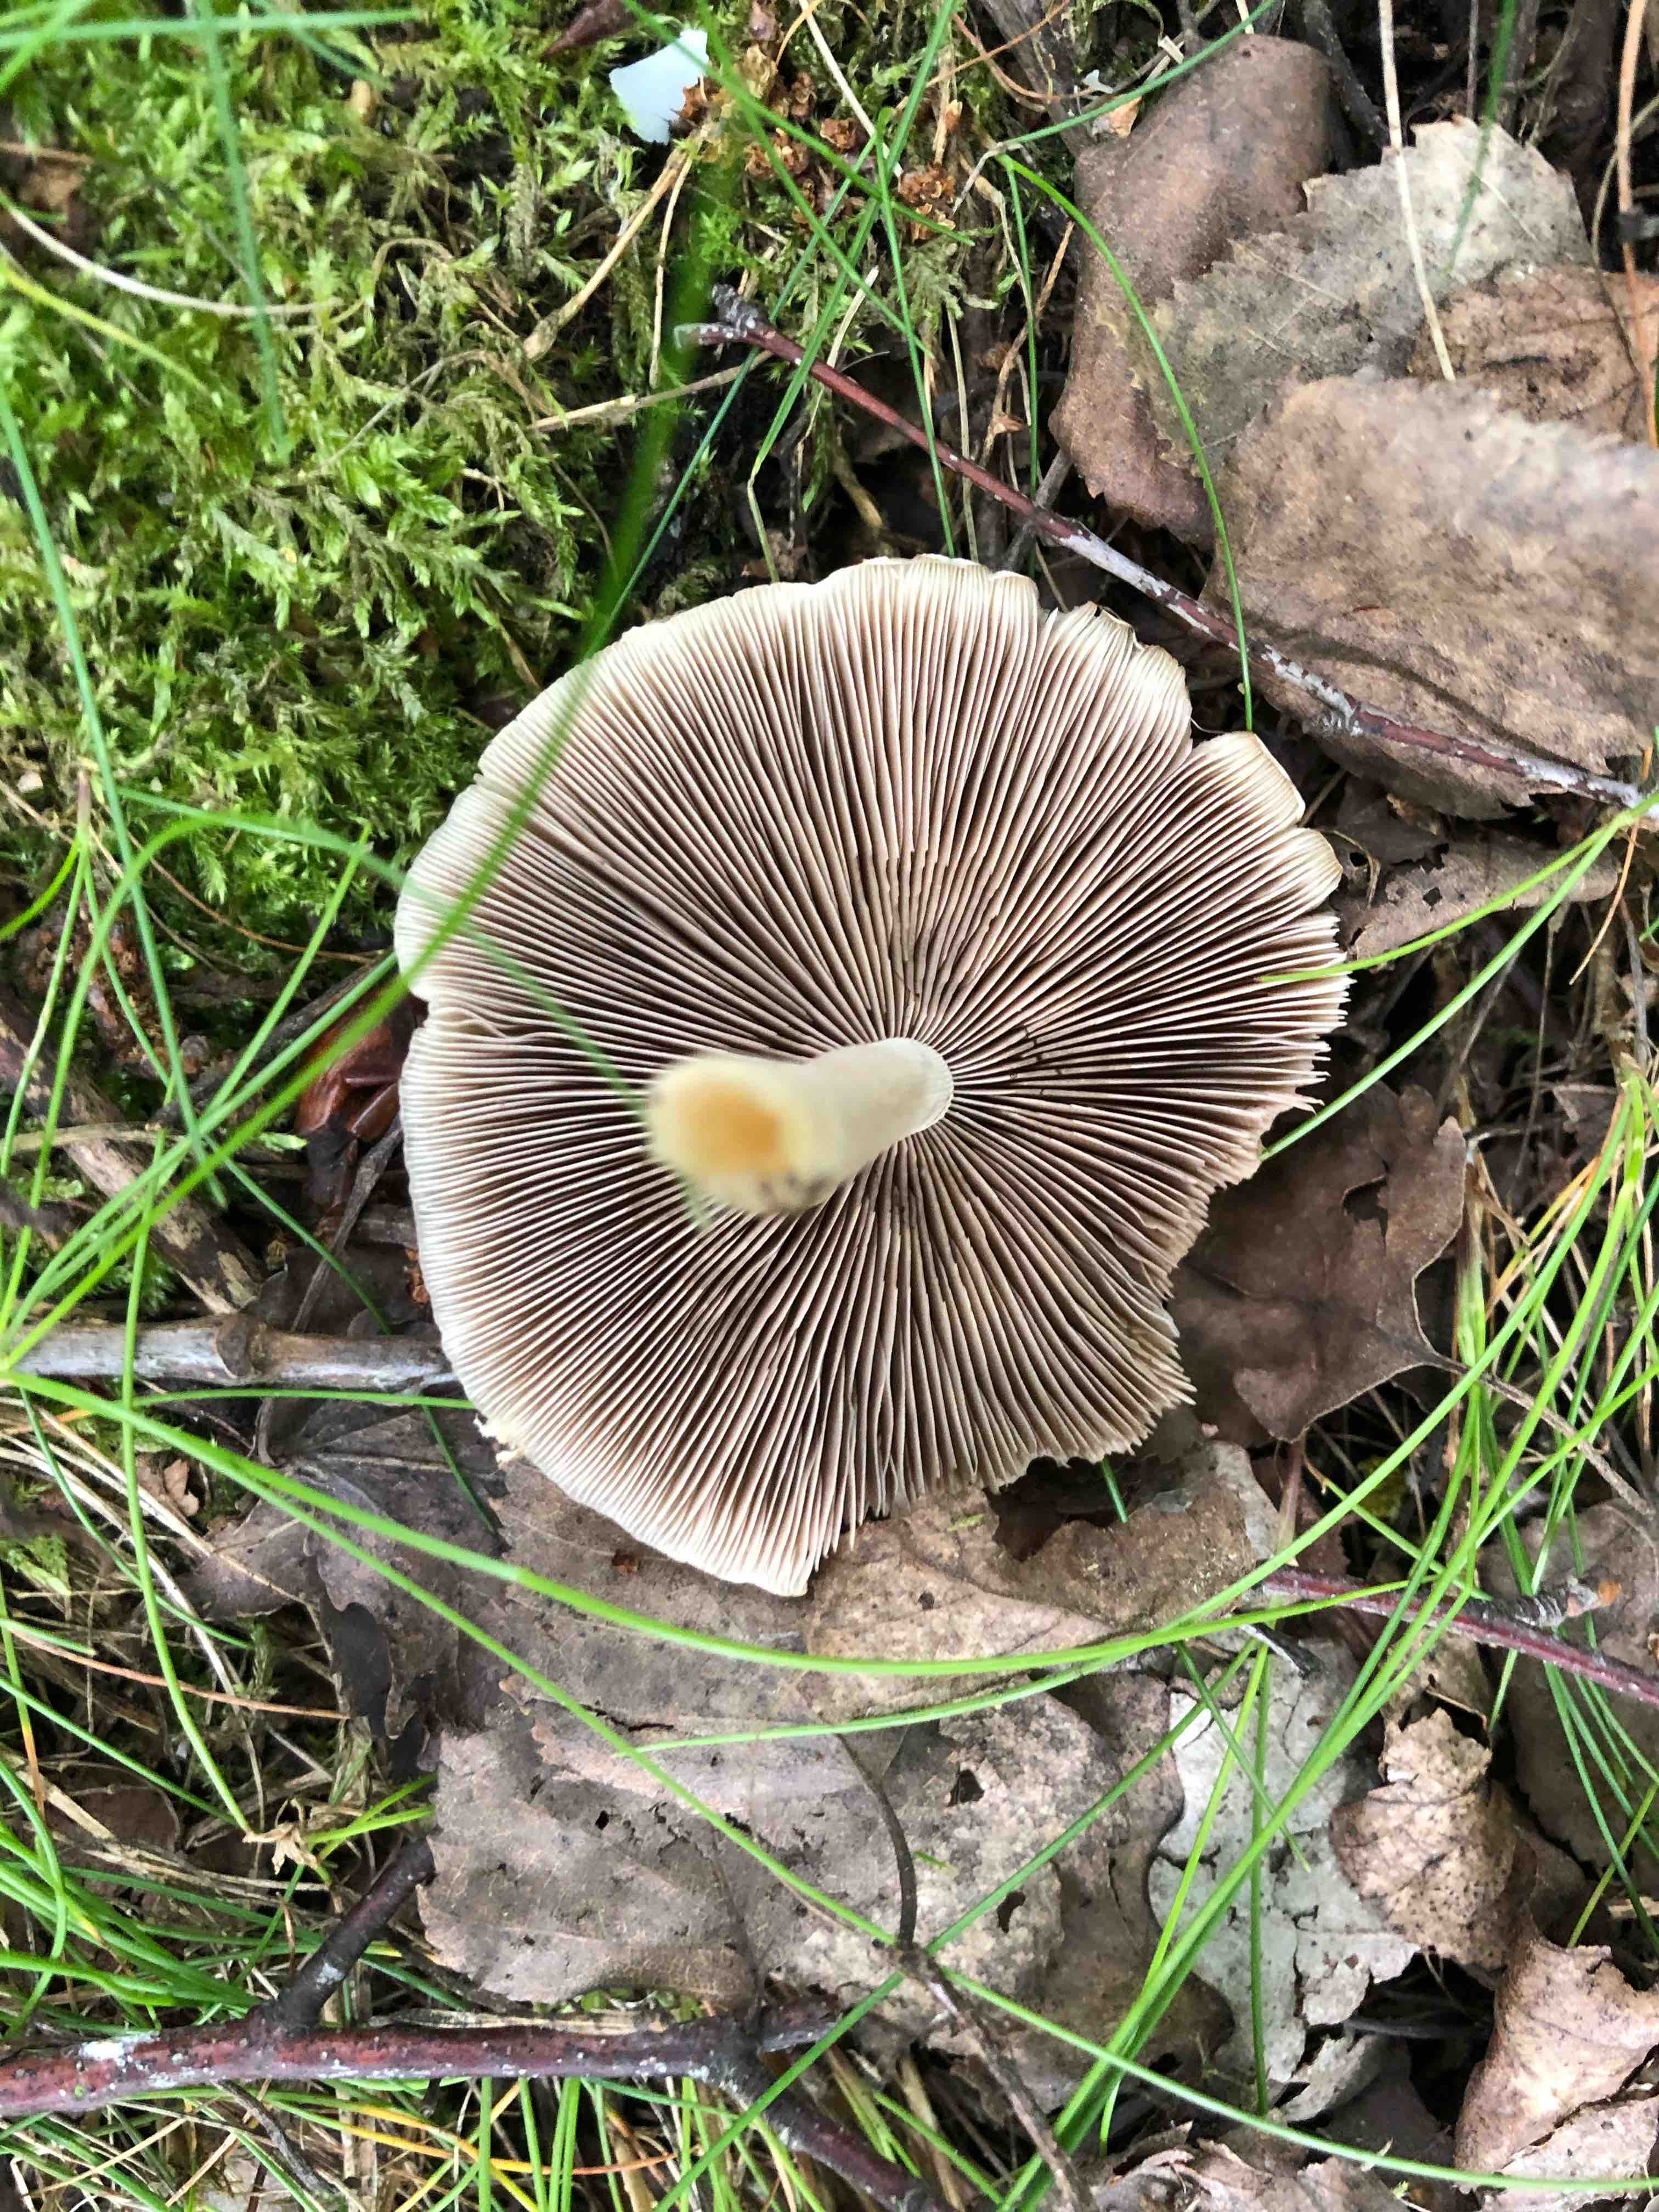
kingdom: Fungi
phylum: Basidiomycota
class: Agaricomycetes
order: Agaricales
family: Psathyrellaceae
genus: Candolleomyces
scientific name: Candolleomyces candolleanus
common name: Candolles mørkhat
